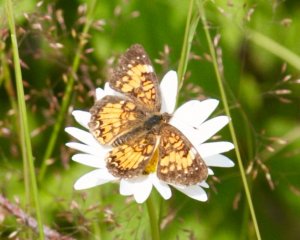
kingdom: Animalia
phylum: Arthropoda
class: Insecta
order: Lepidoptera
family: Nymphalidae
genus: Phyciodes
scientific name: Phyciodes tharos
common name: Northern Crescent
